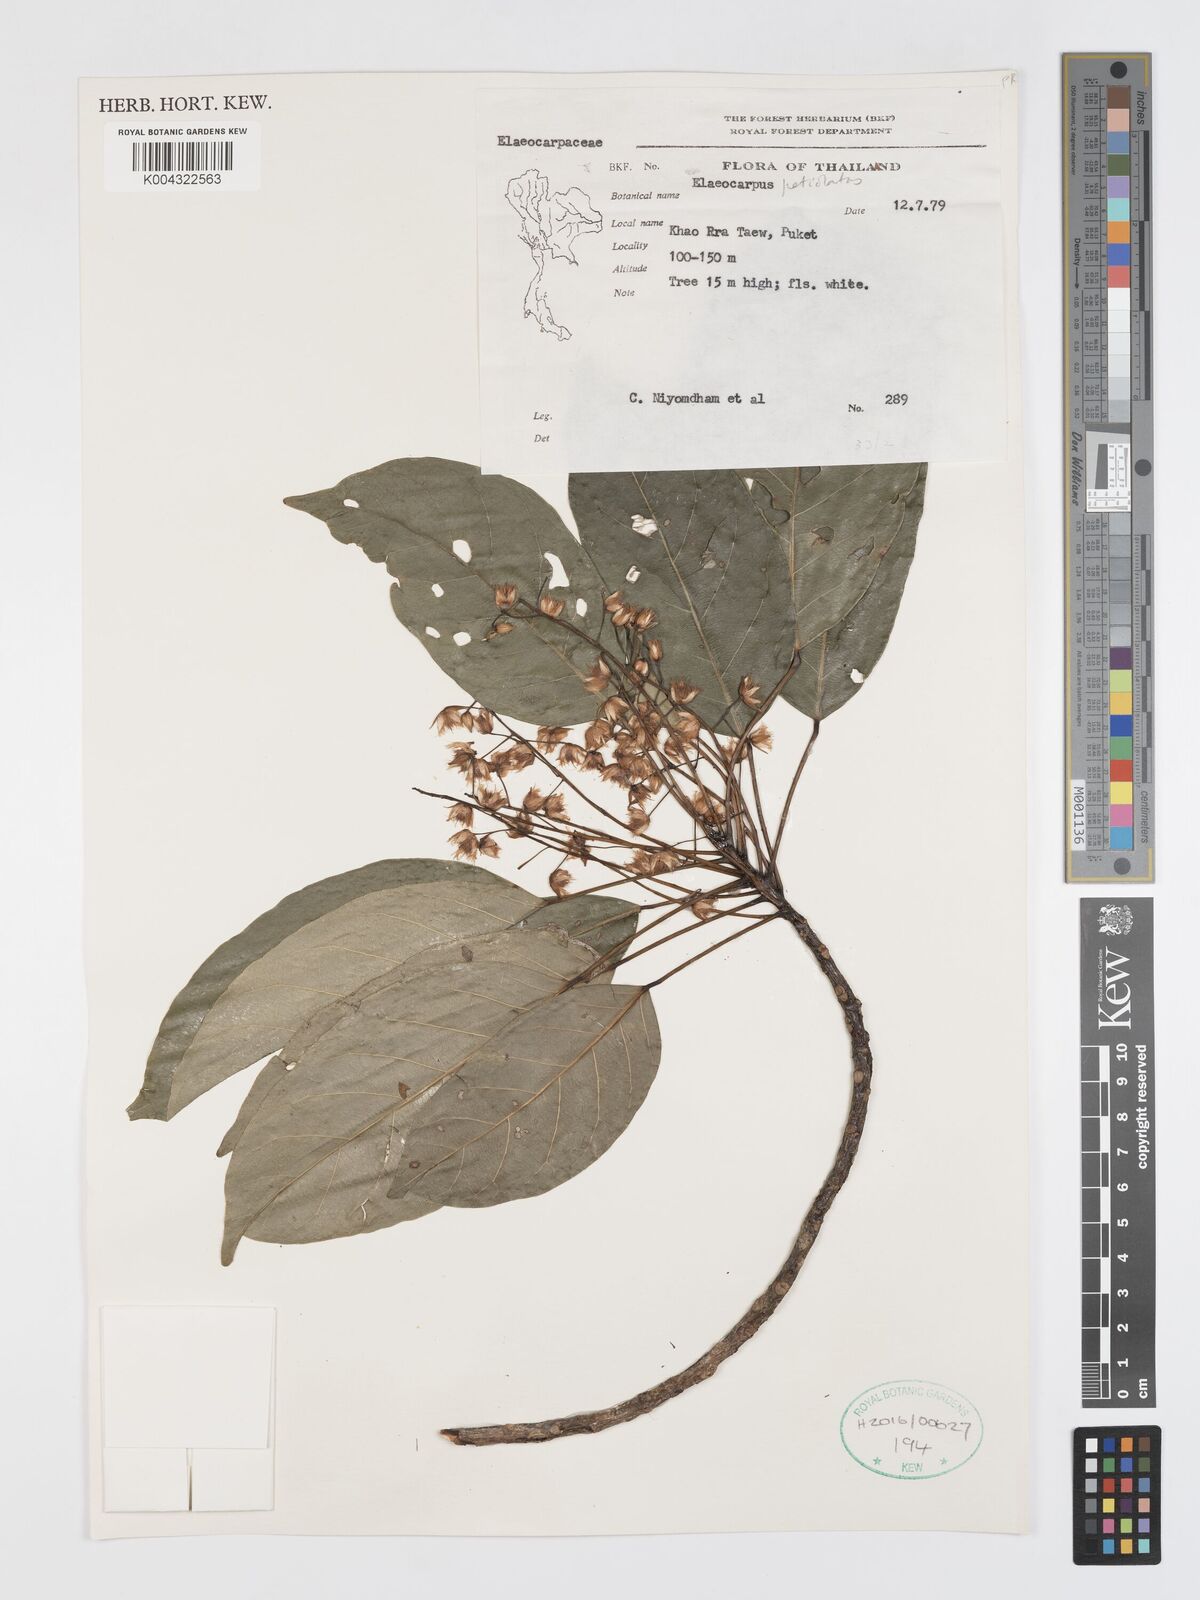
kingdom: Plantae
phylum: Tracheophyta
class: Magnoliopsida
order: Oxalidales
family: Elaeocarpaceae
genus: Elaeocarpus
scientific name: Elaeocarpus petiolatus
